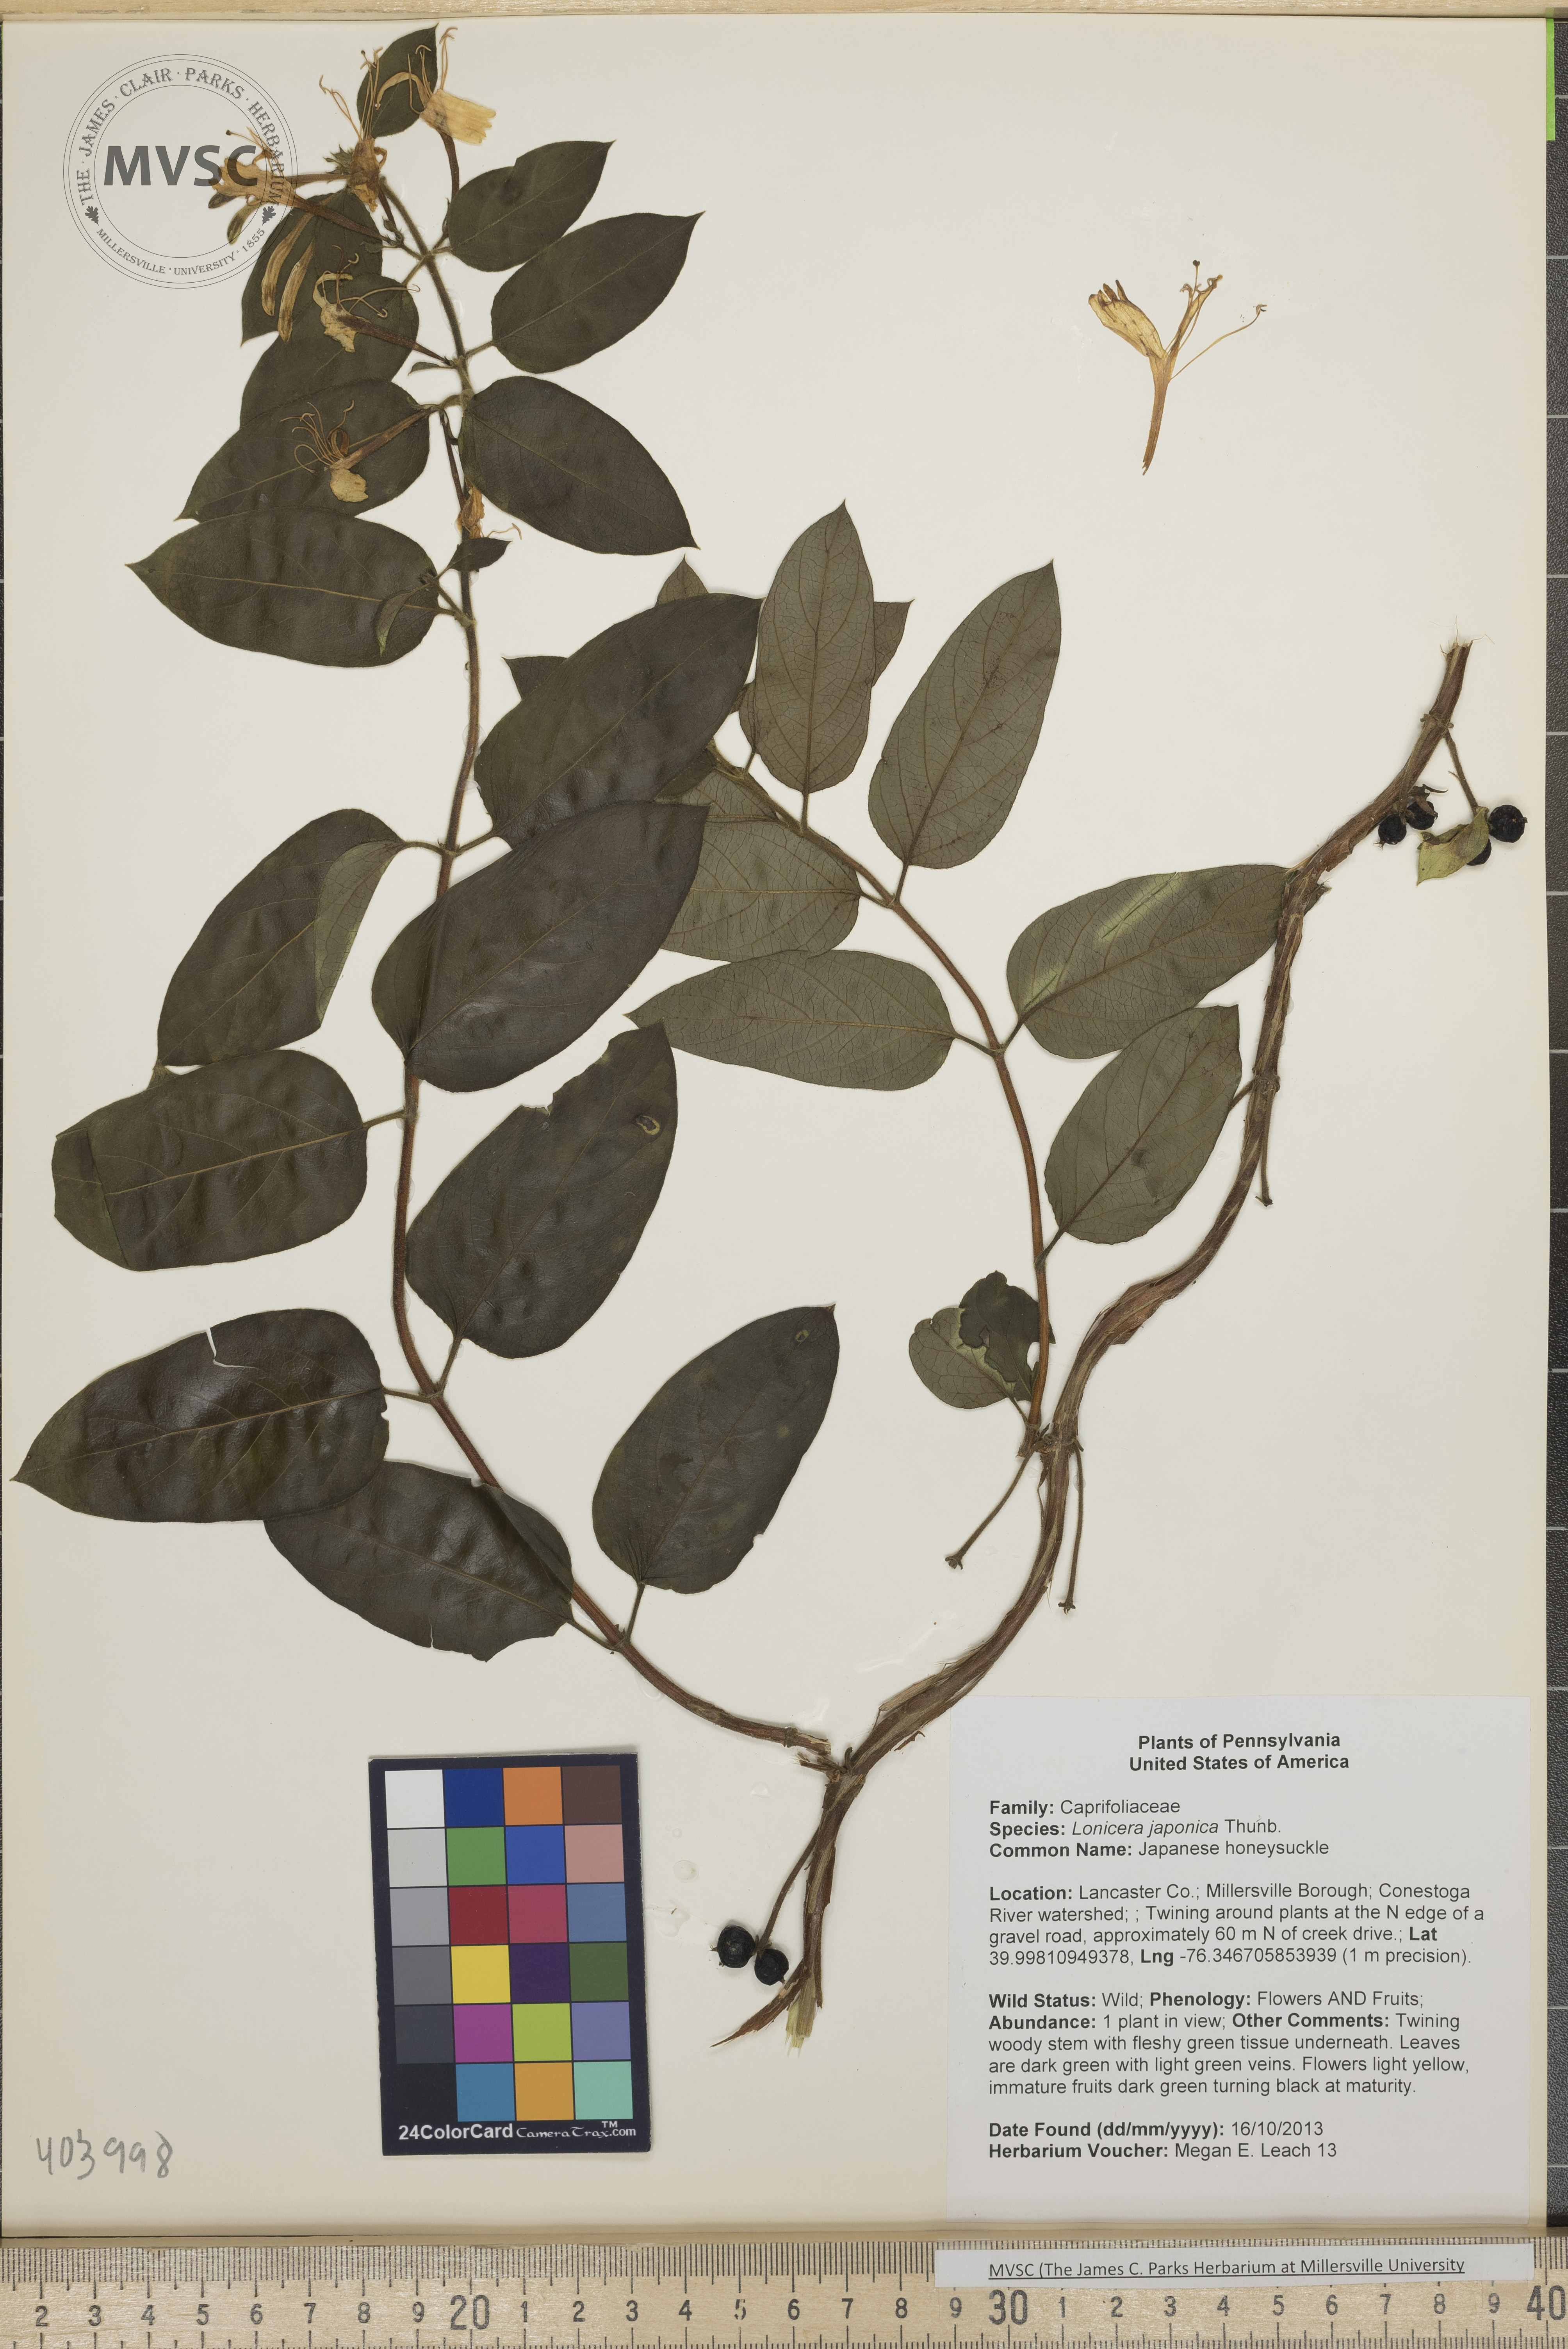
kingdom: Plantae
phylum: Tracheophyta
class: Magnoliopsida
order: Dipsacales
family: Caprifoliaceae
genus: Lonicera
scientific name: Lonicera japonica
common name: Japanese honeysuckle
